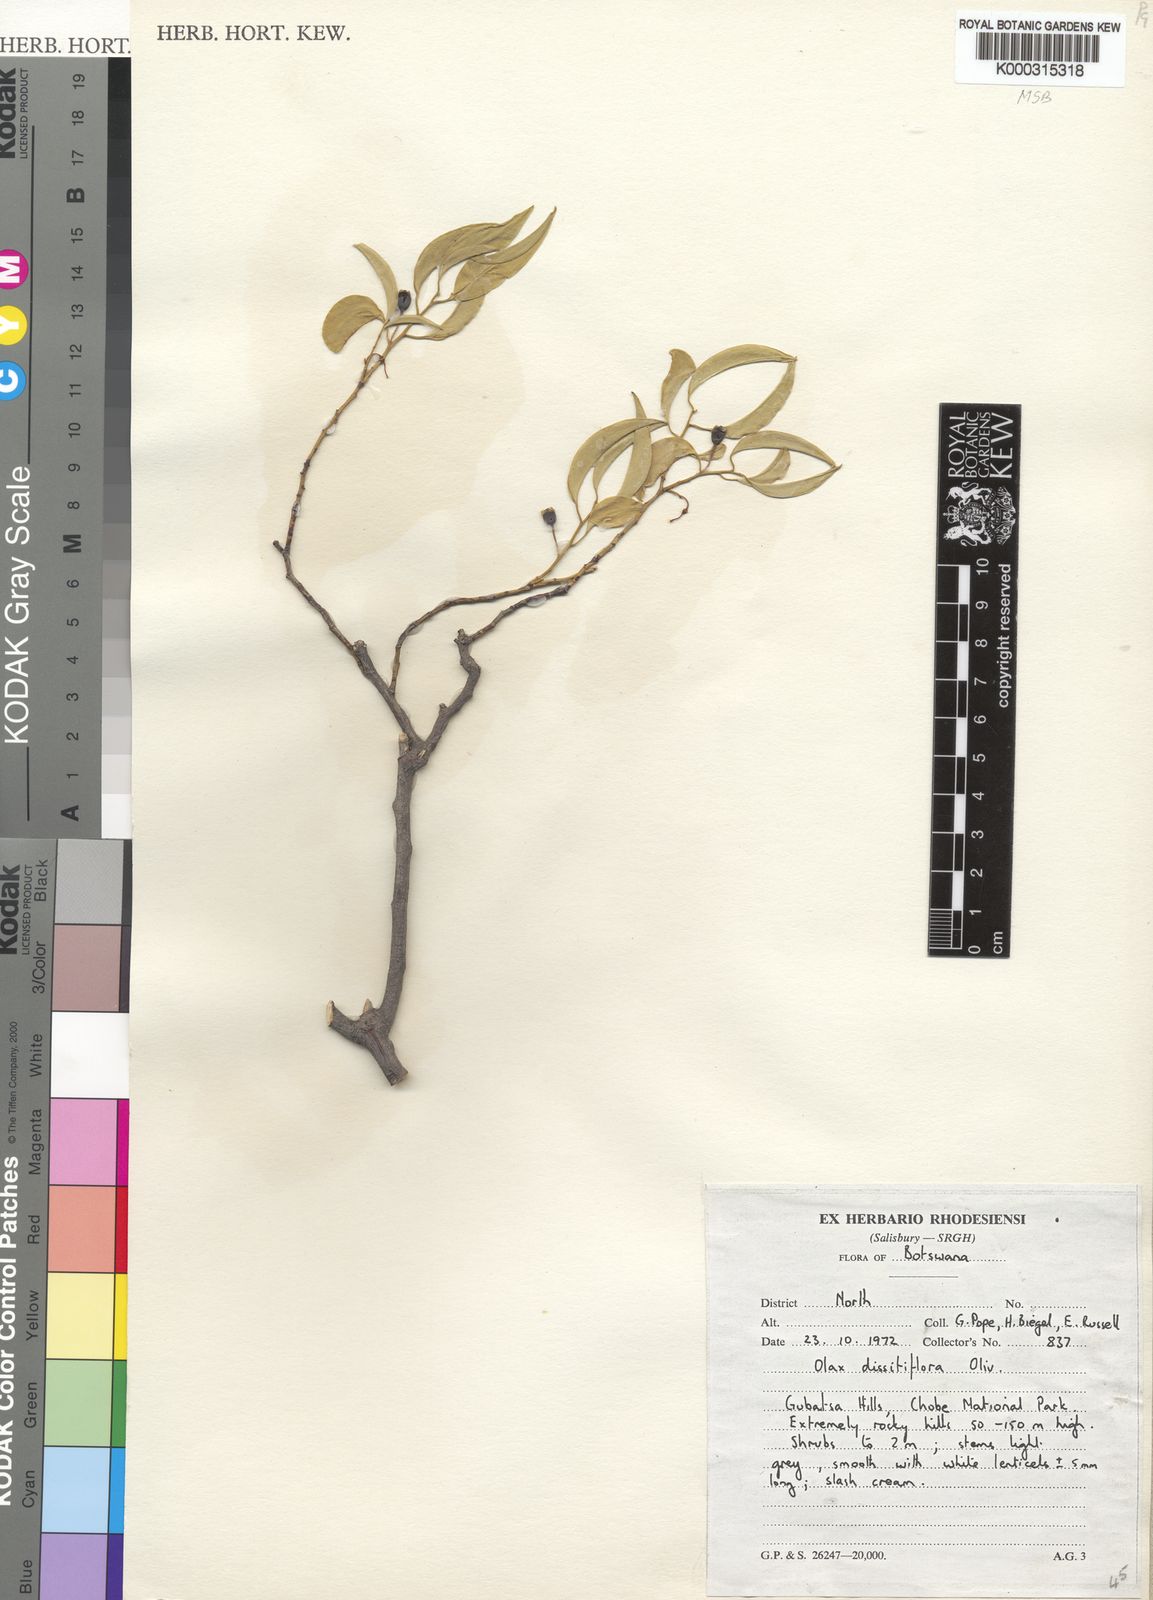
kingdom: Plantae
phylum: Tracheophyta
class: Magnoliopsida
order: Santalales
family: Olacaceae
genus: Olax
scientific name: Olax dissitiflora
